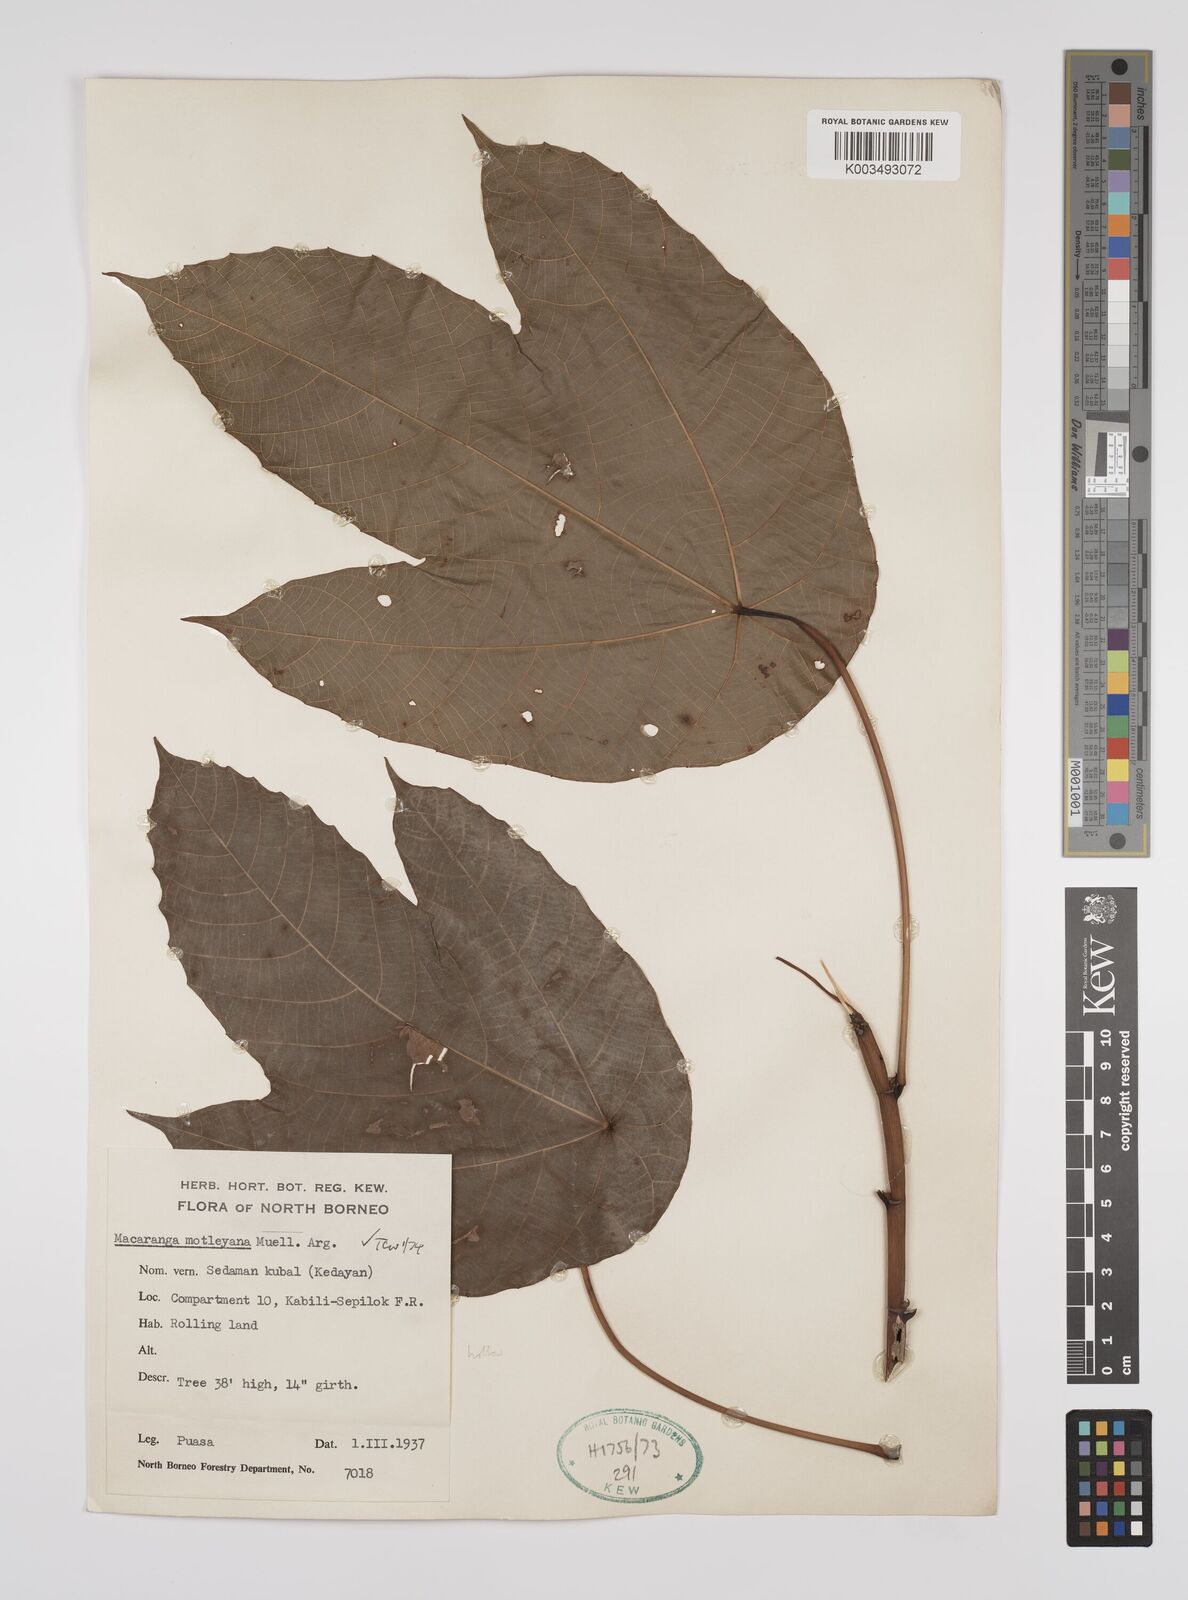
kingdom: Plantae
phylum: Tracheophyta
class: Magnoliopsida
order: Malpighiales
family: Euphorbiaceae
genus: Macaranga
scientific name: Macaranga motleyana
